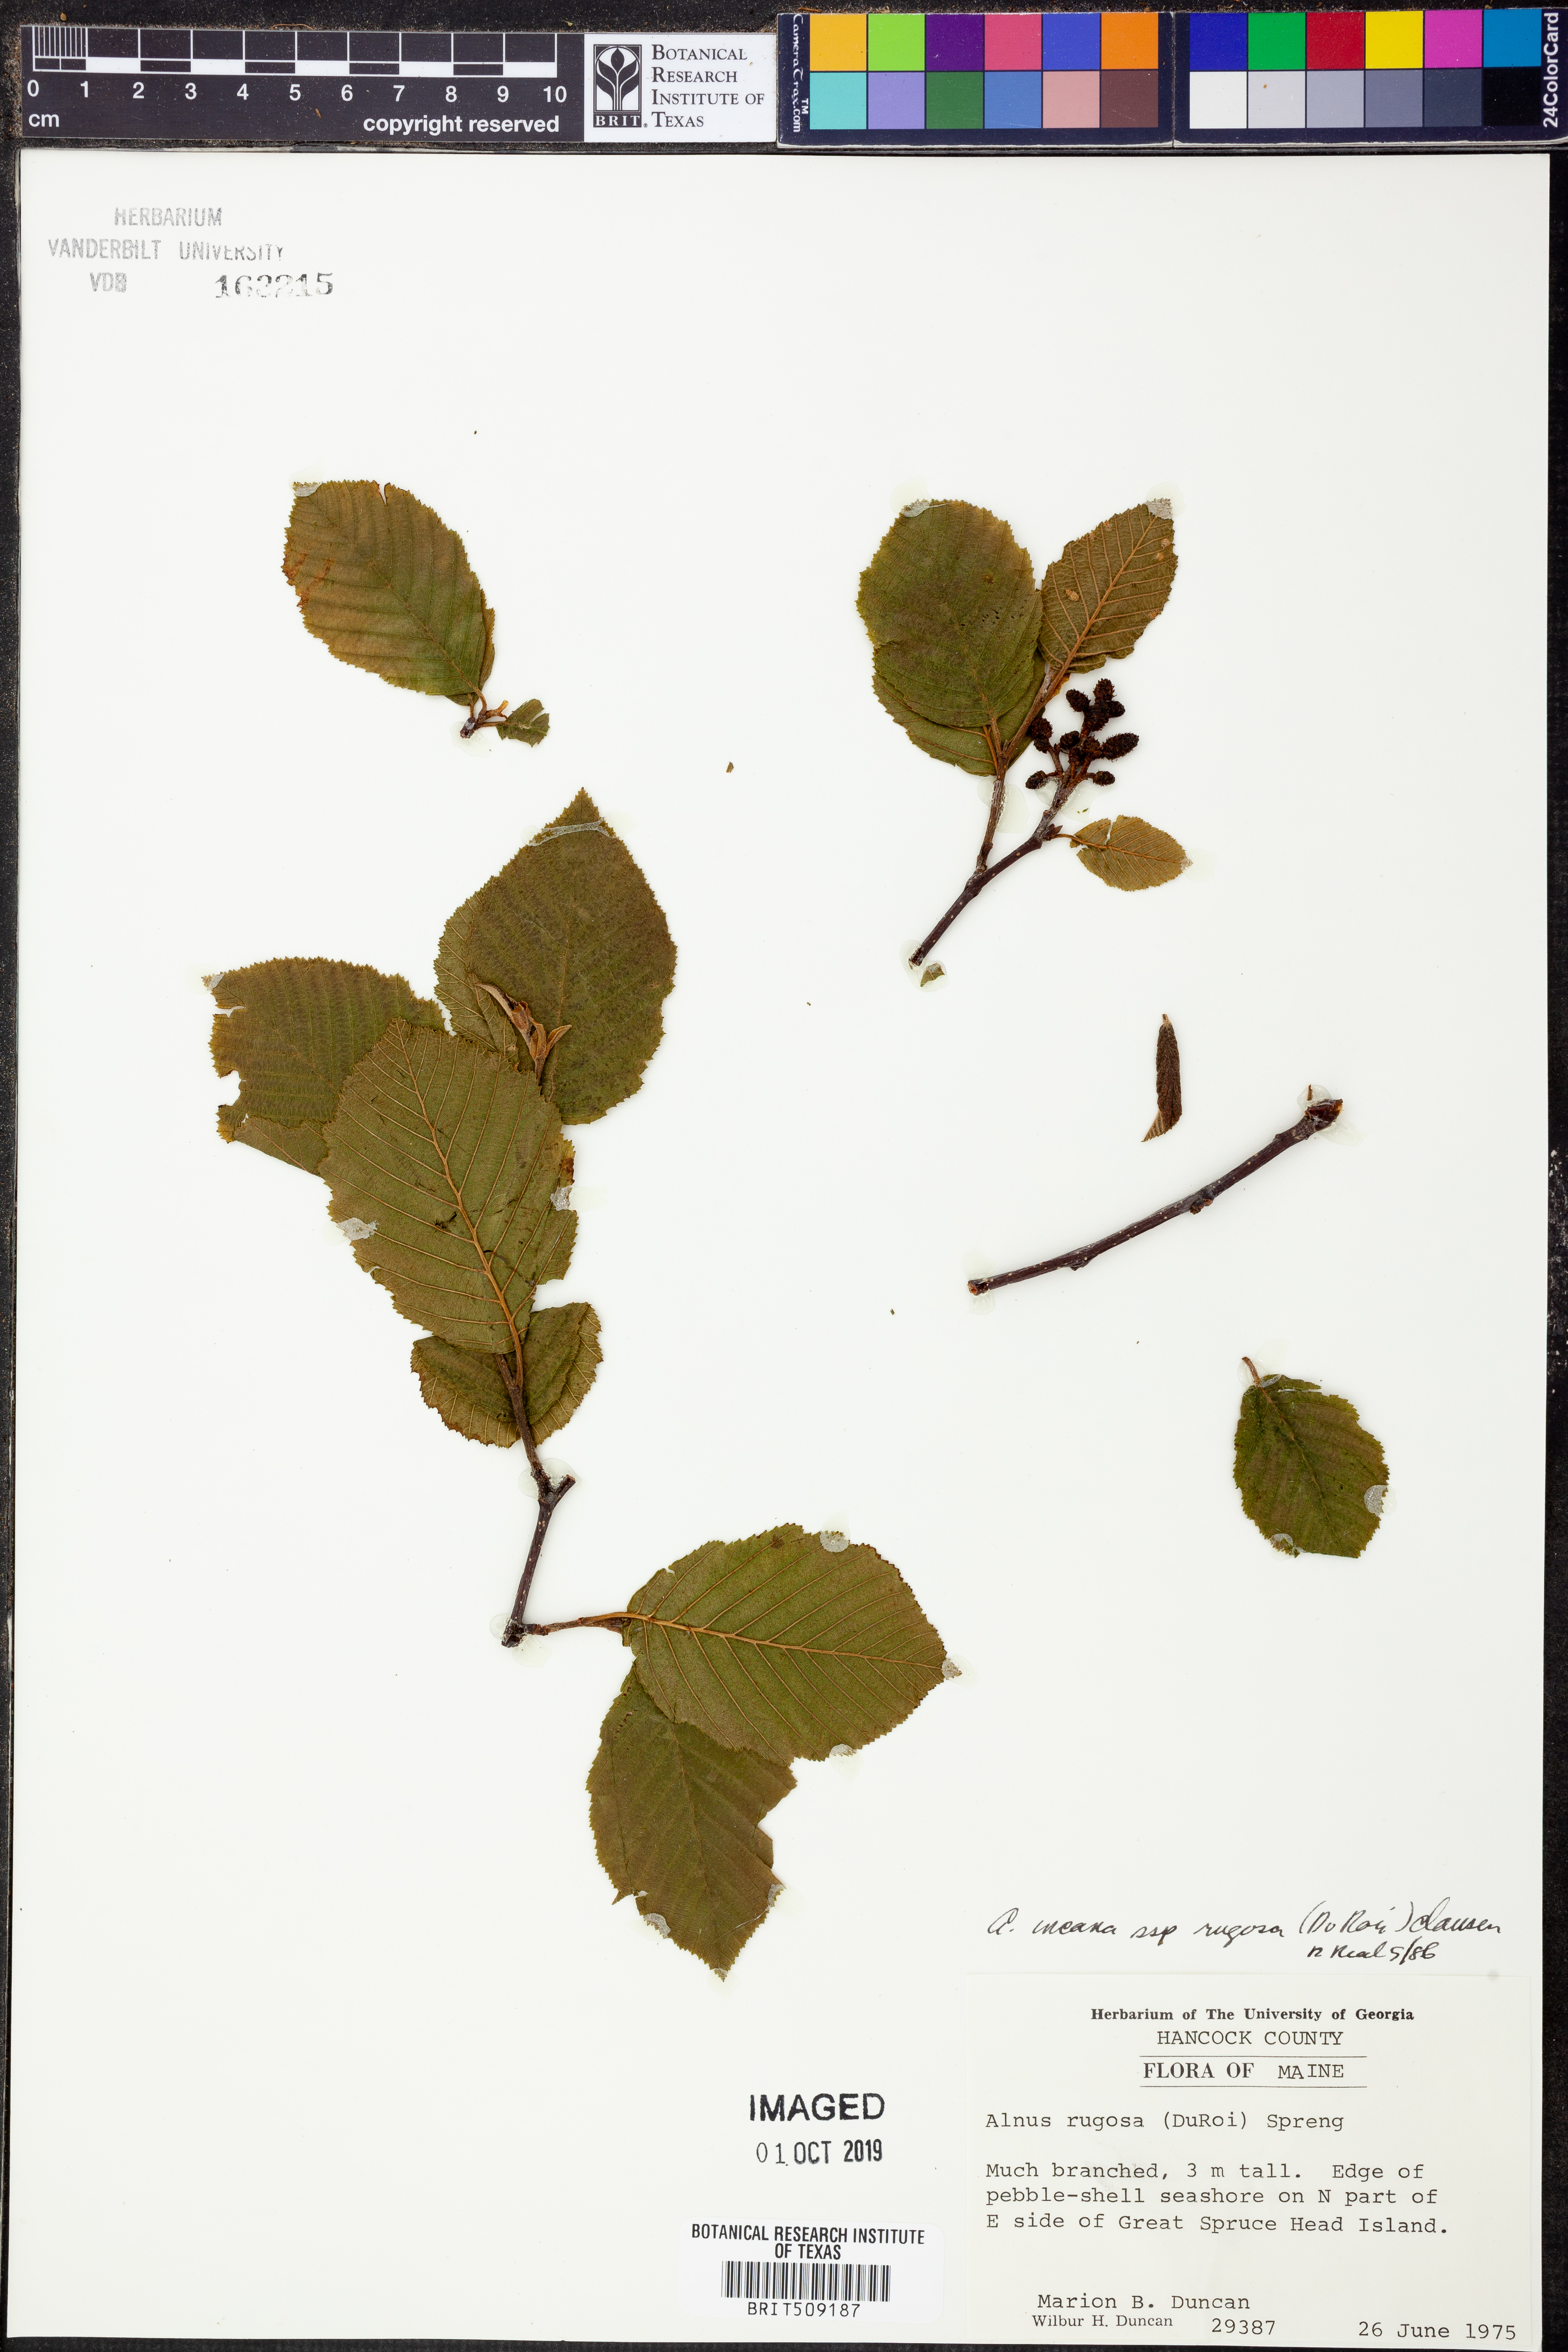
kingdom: Plantae
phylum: Tracheophyta
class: Magnoliopsida
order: Fagales
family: Betulaceae
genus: Alnus
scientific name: Alnus incana
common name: Grey alder
